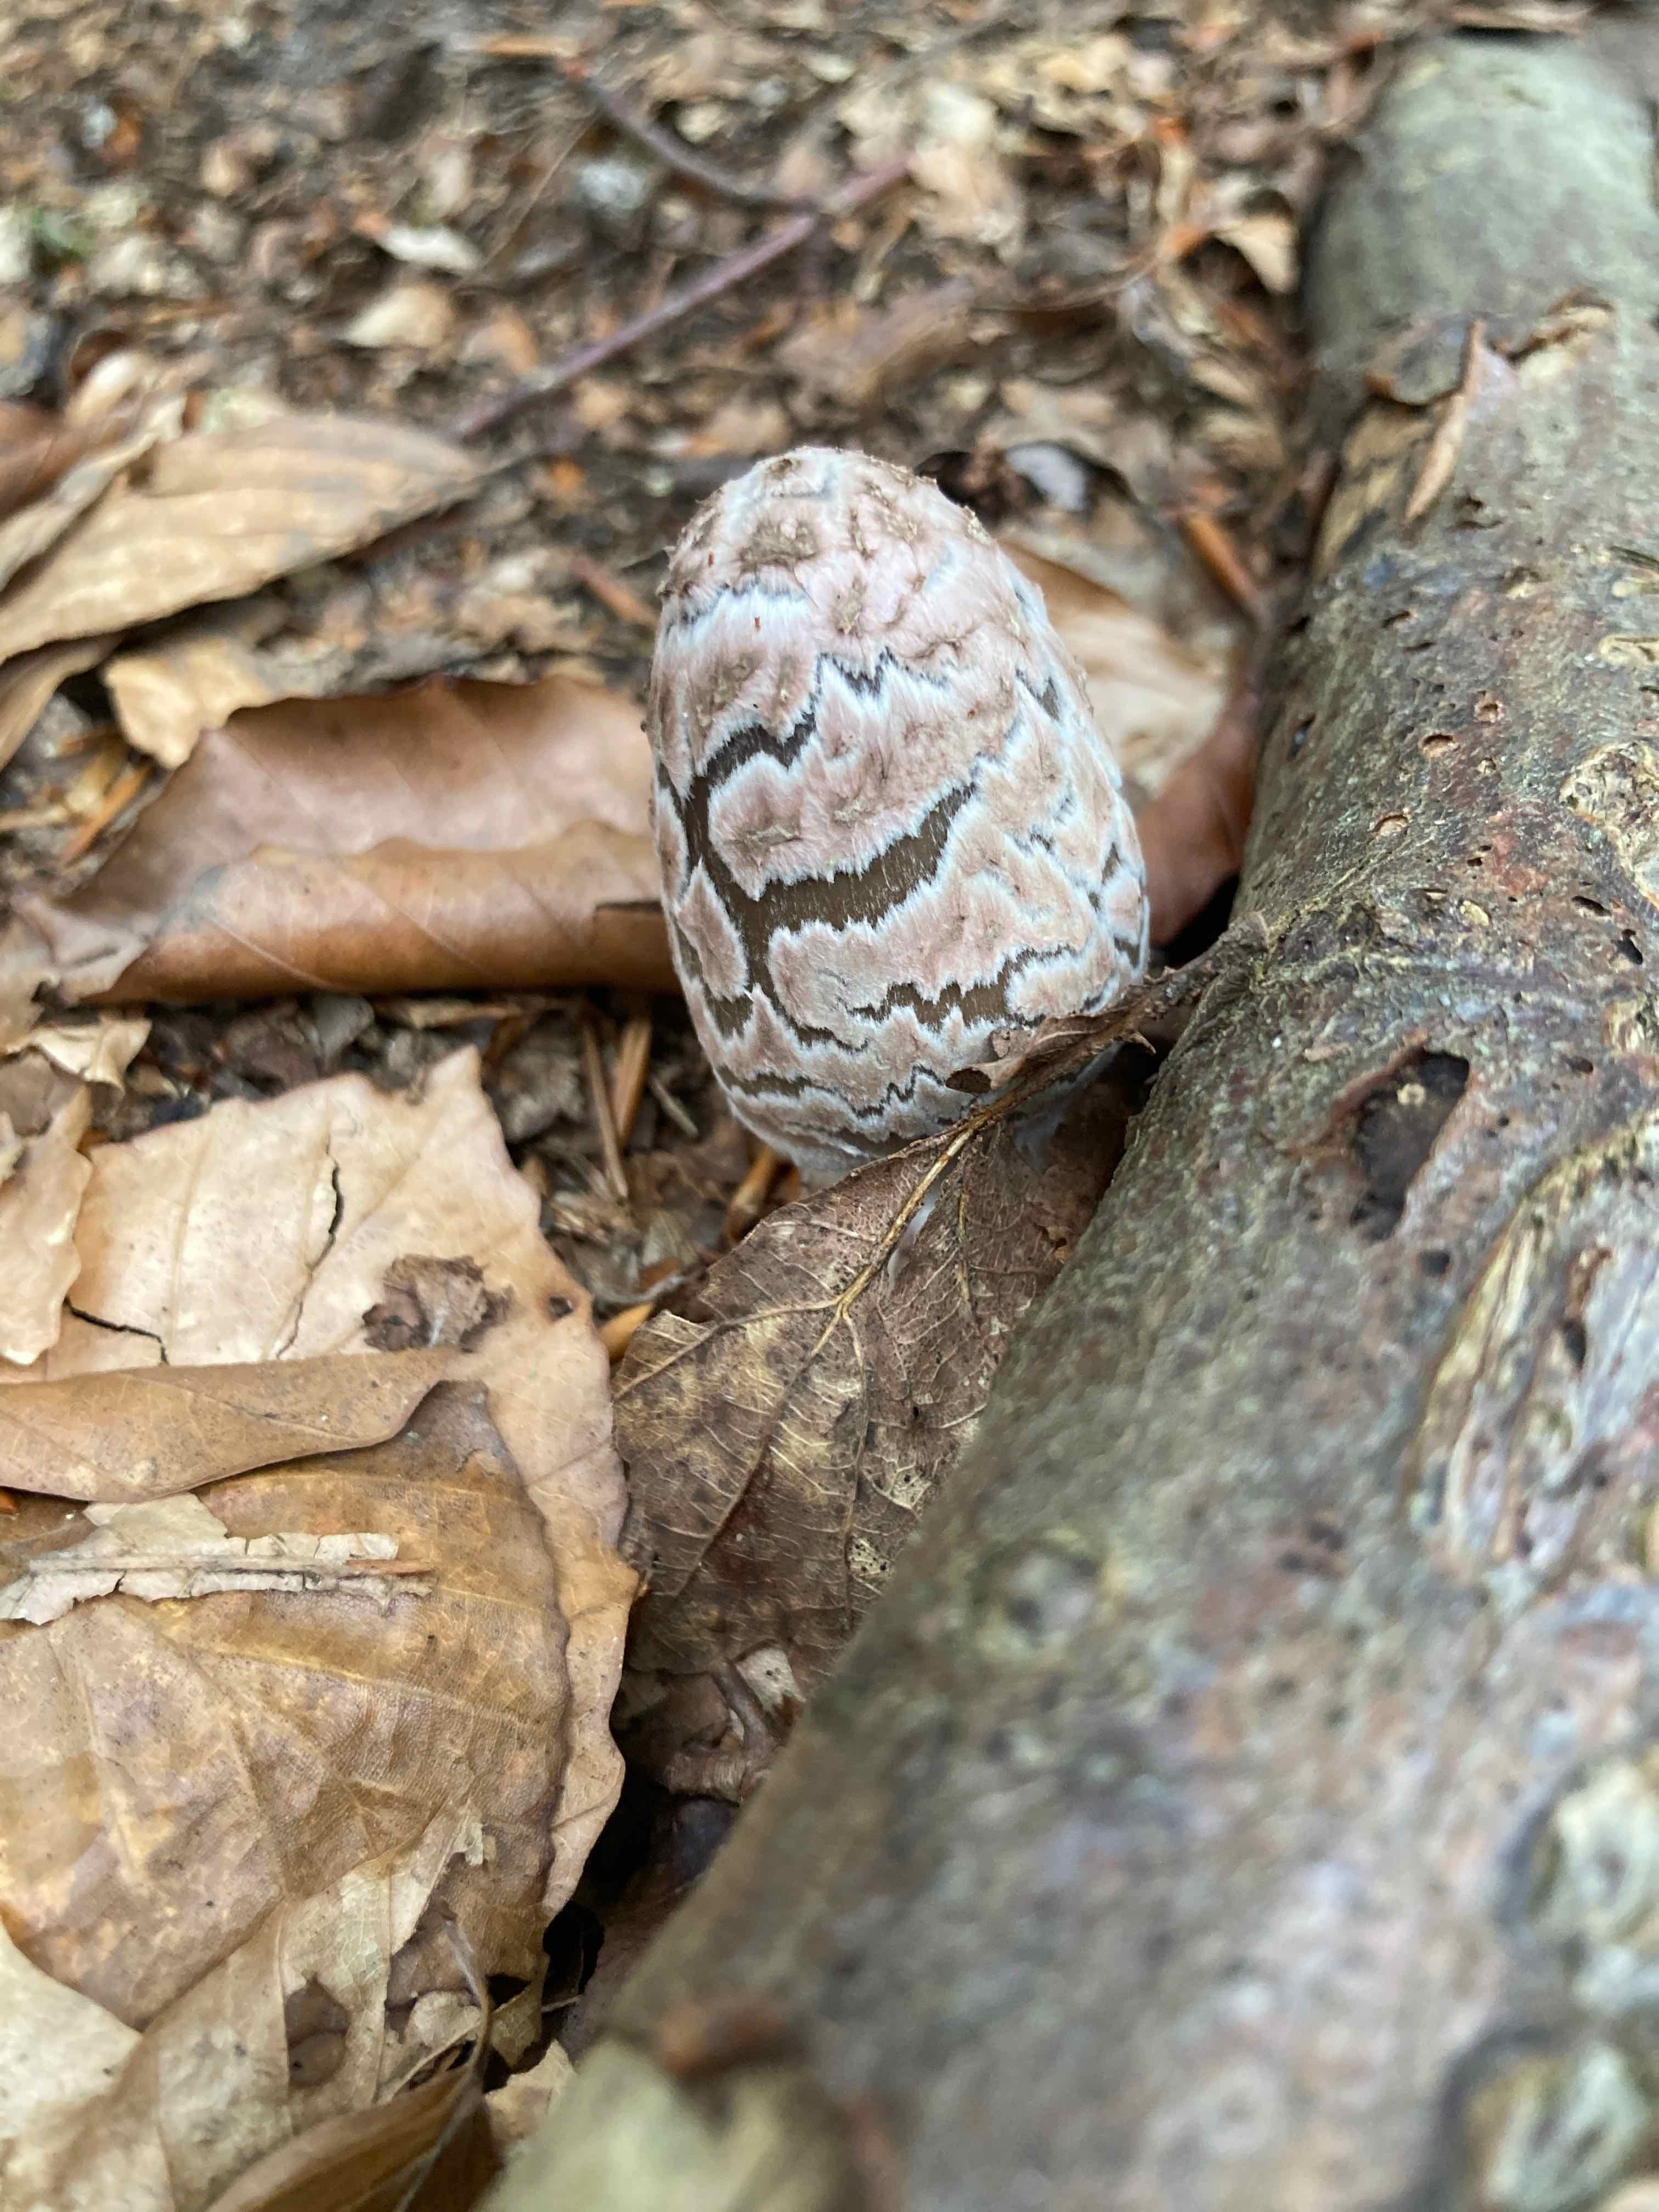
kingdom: Fungi
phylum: Basidiomycota
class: Agaricomycetes
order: Agaricales
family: Psathyrellaceae
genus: Coprinopsis
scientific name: Coprinopsis picacea
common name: skade-blækhat
